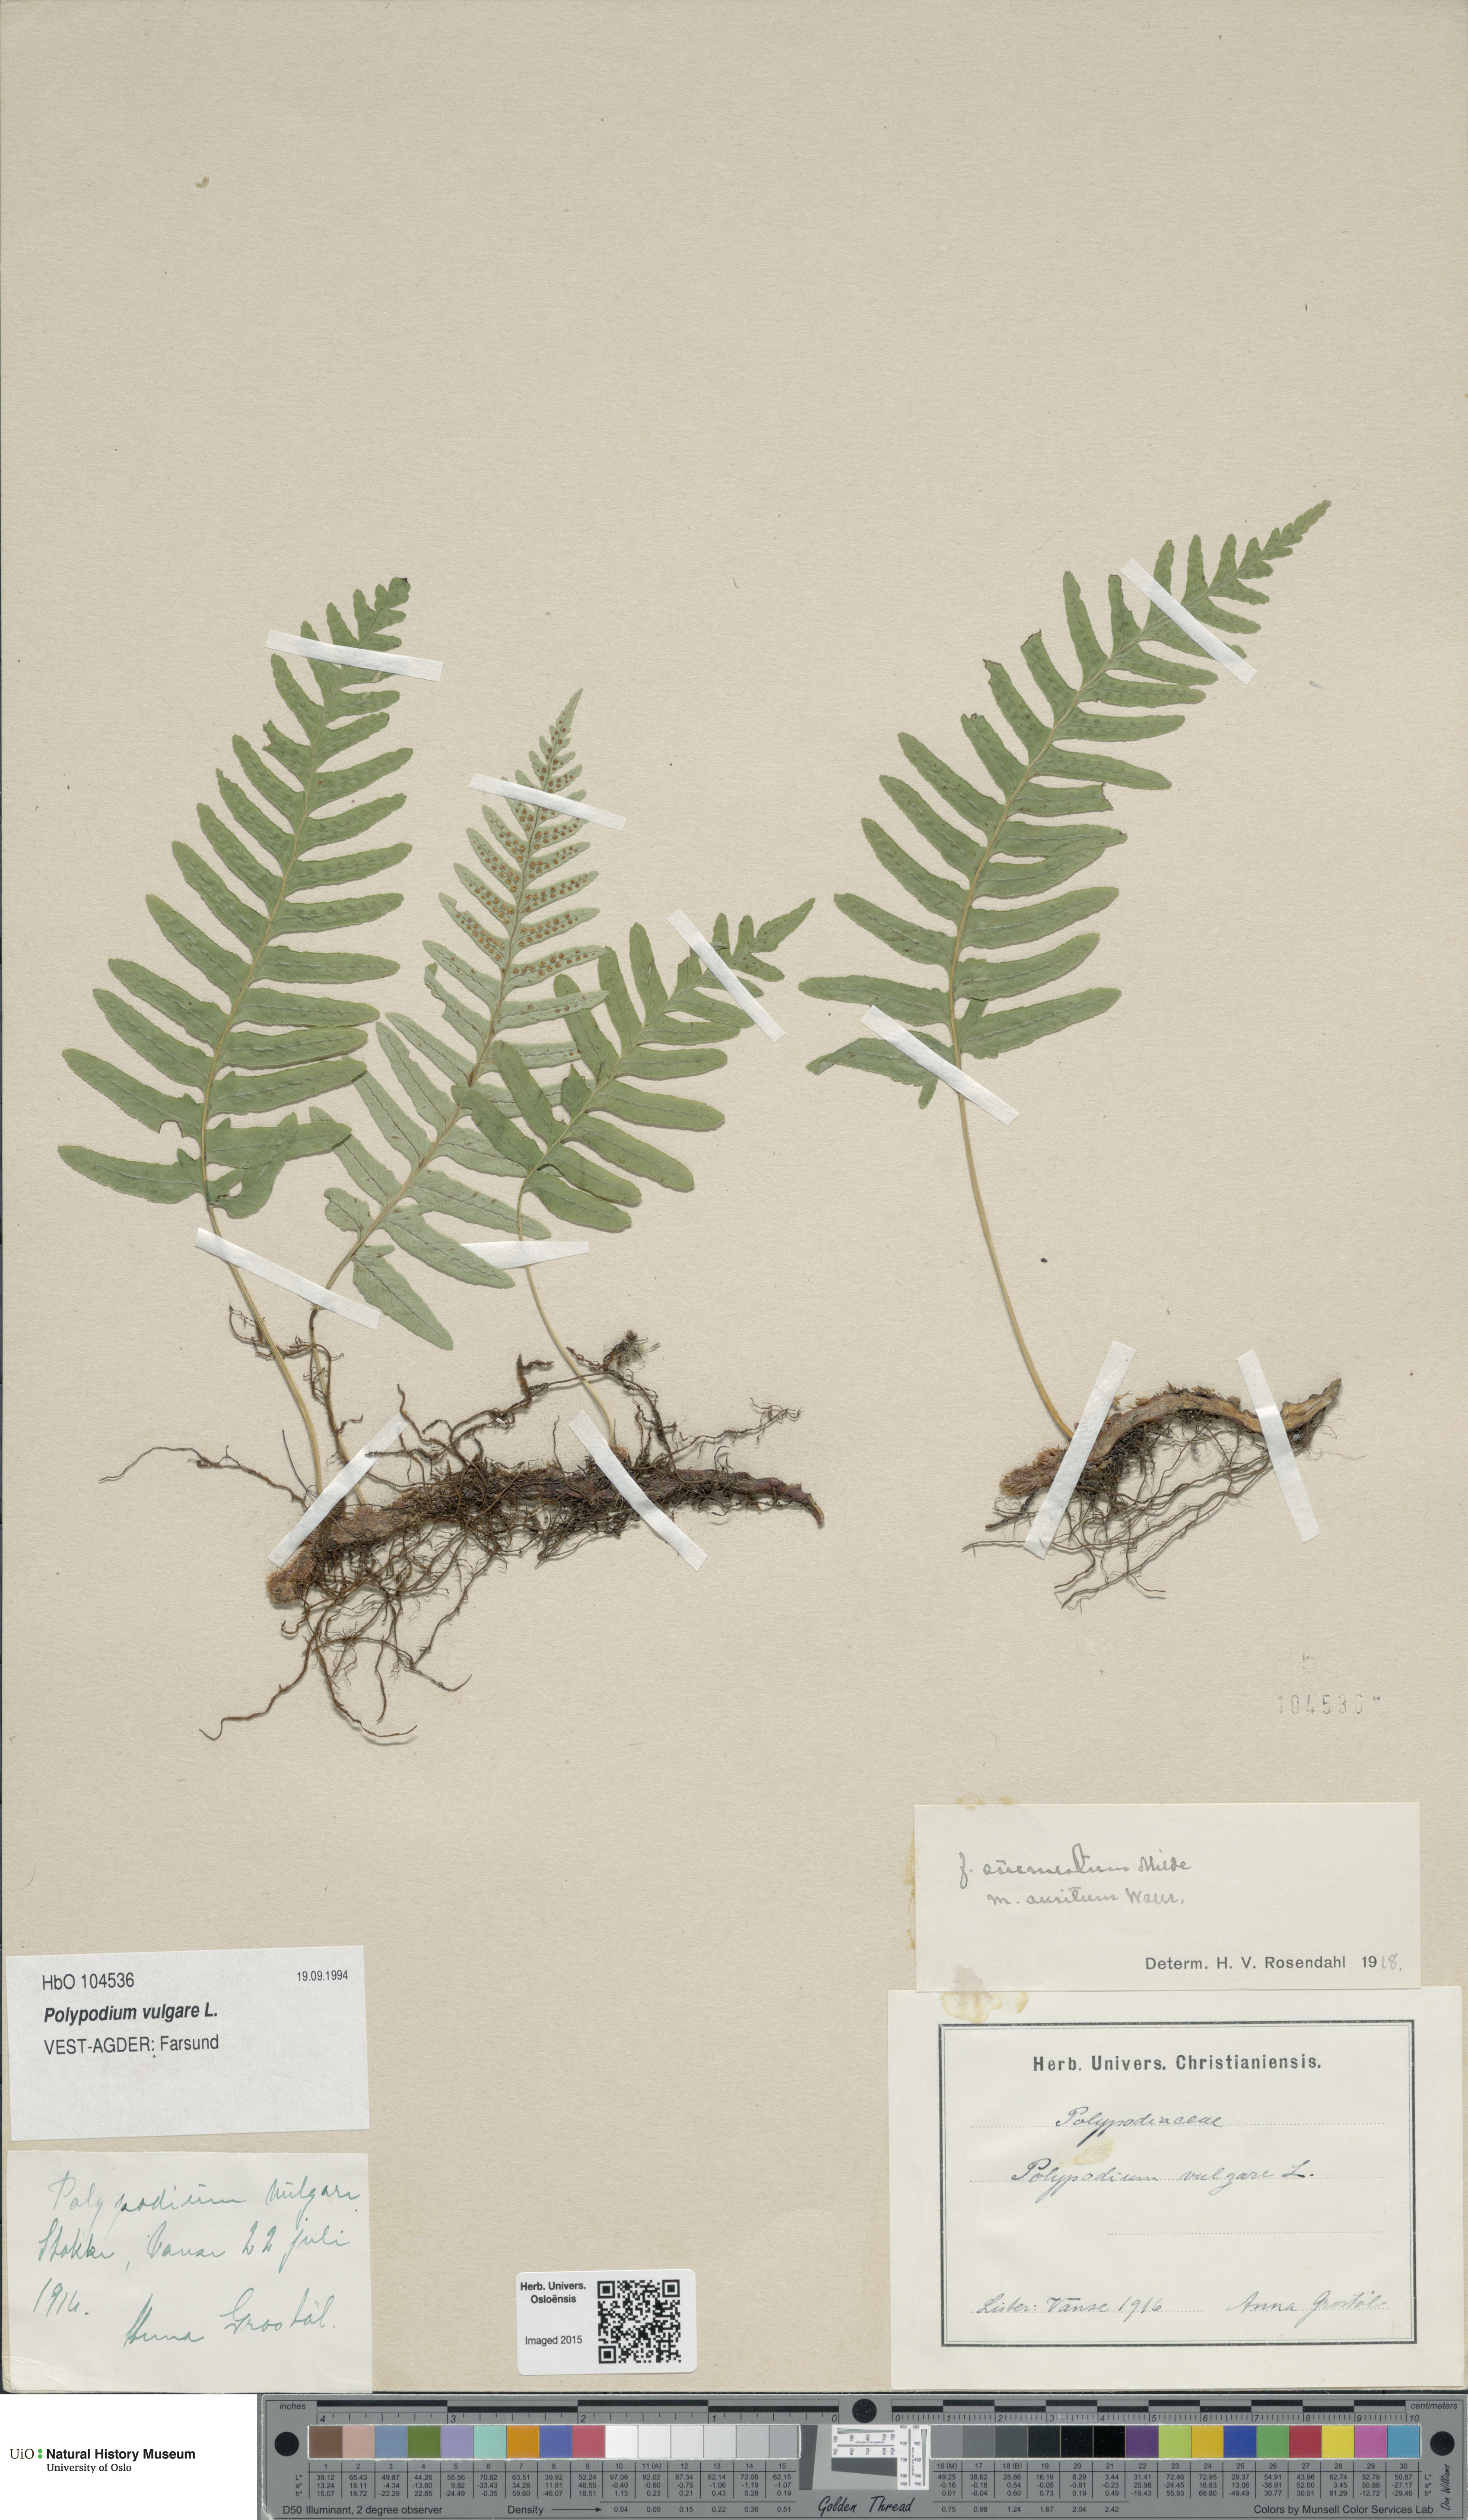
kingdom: Plantae
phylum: Tracheophyta
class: Polypodiopsida
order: Polypodiales
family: Polypodiaceae
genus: Polypodium
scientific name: Polypodium vulgare
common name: Common polypody
